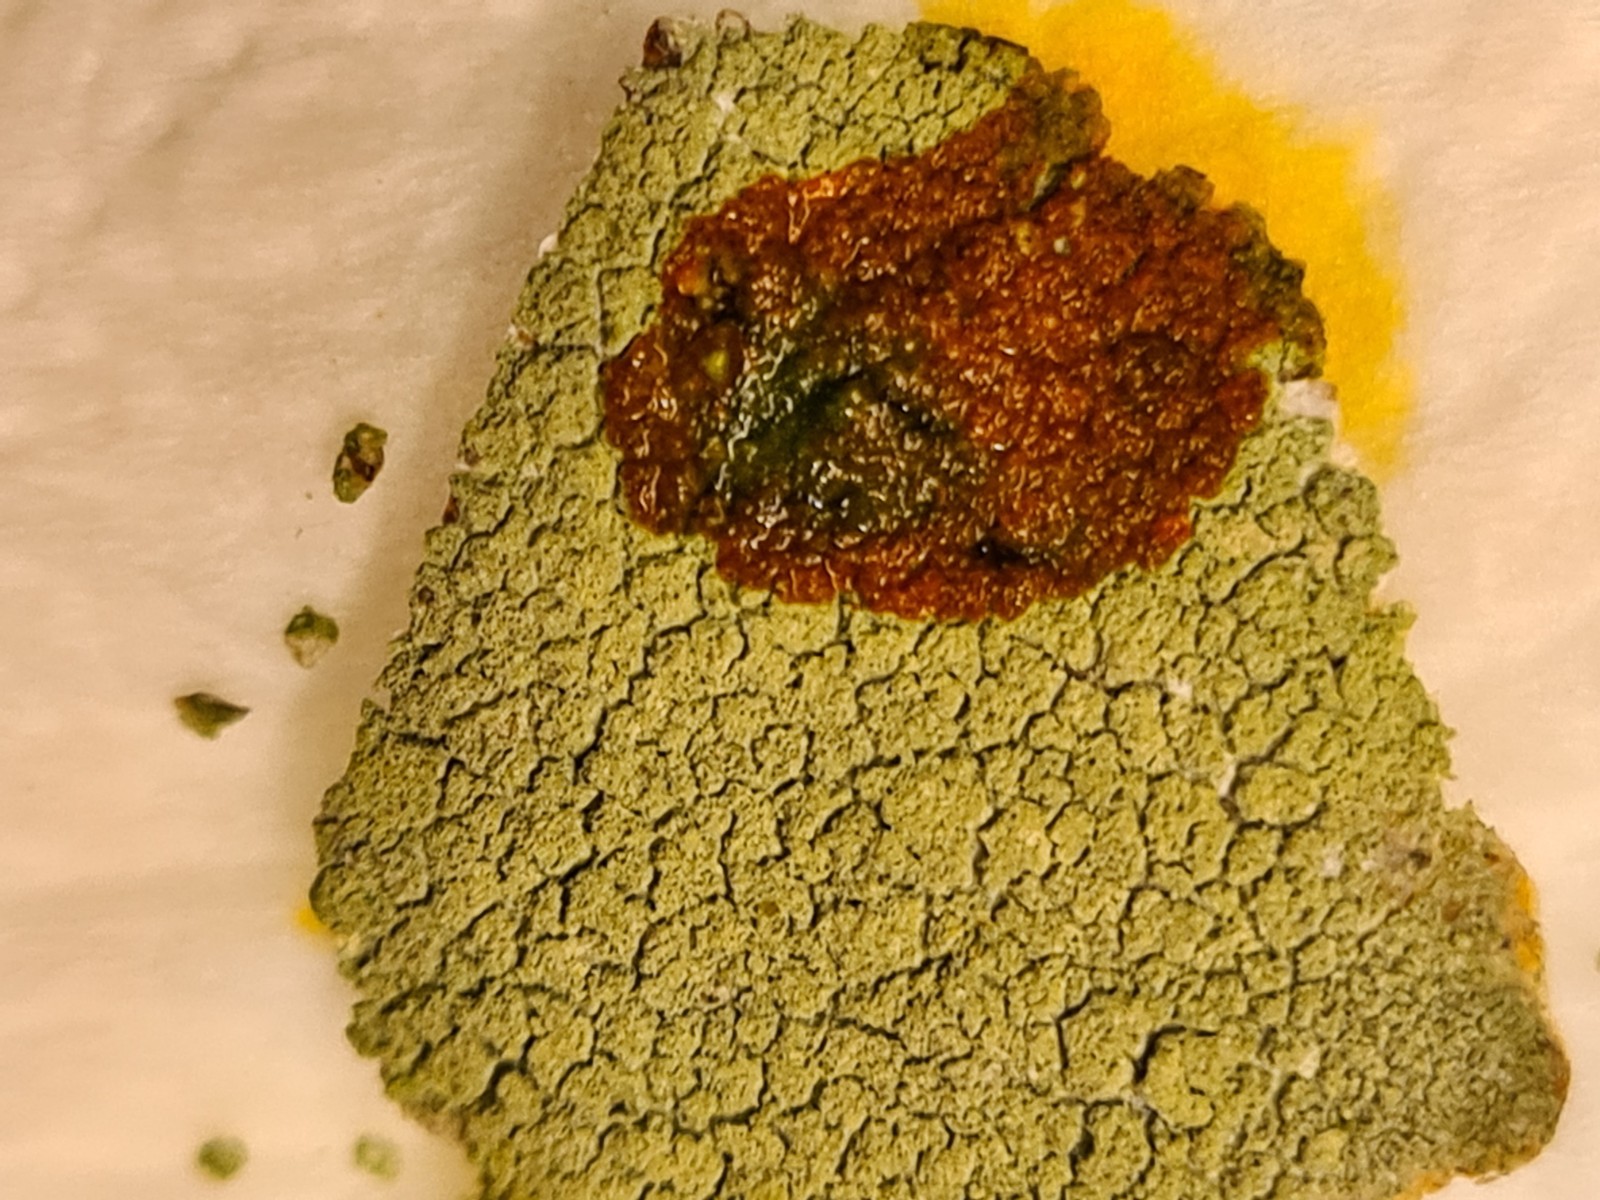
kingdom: Fungi
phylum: Ascomycota
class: Lecanoromycetes
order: Lecanorales
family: Lecanoraceae
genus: Pyrrhospora
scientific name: Pyrrhospora quernea
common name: almindelig rødskivelav
